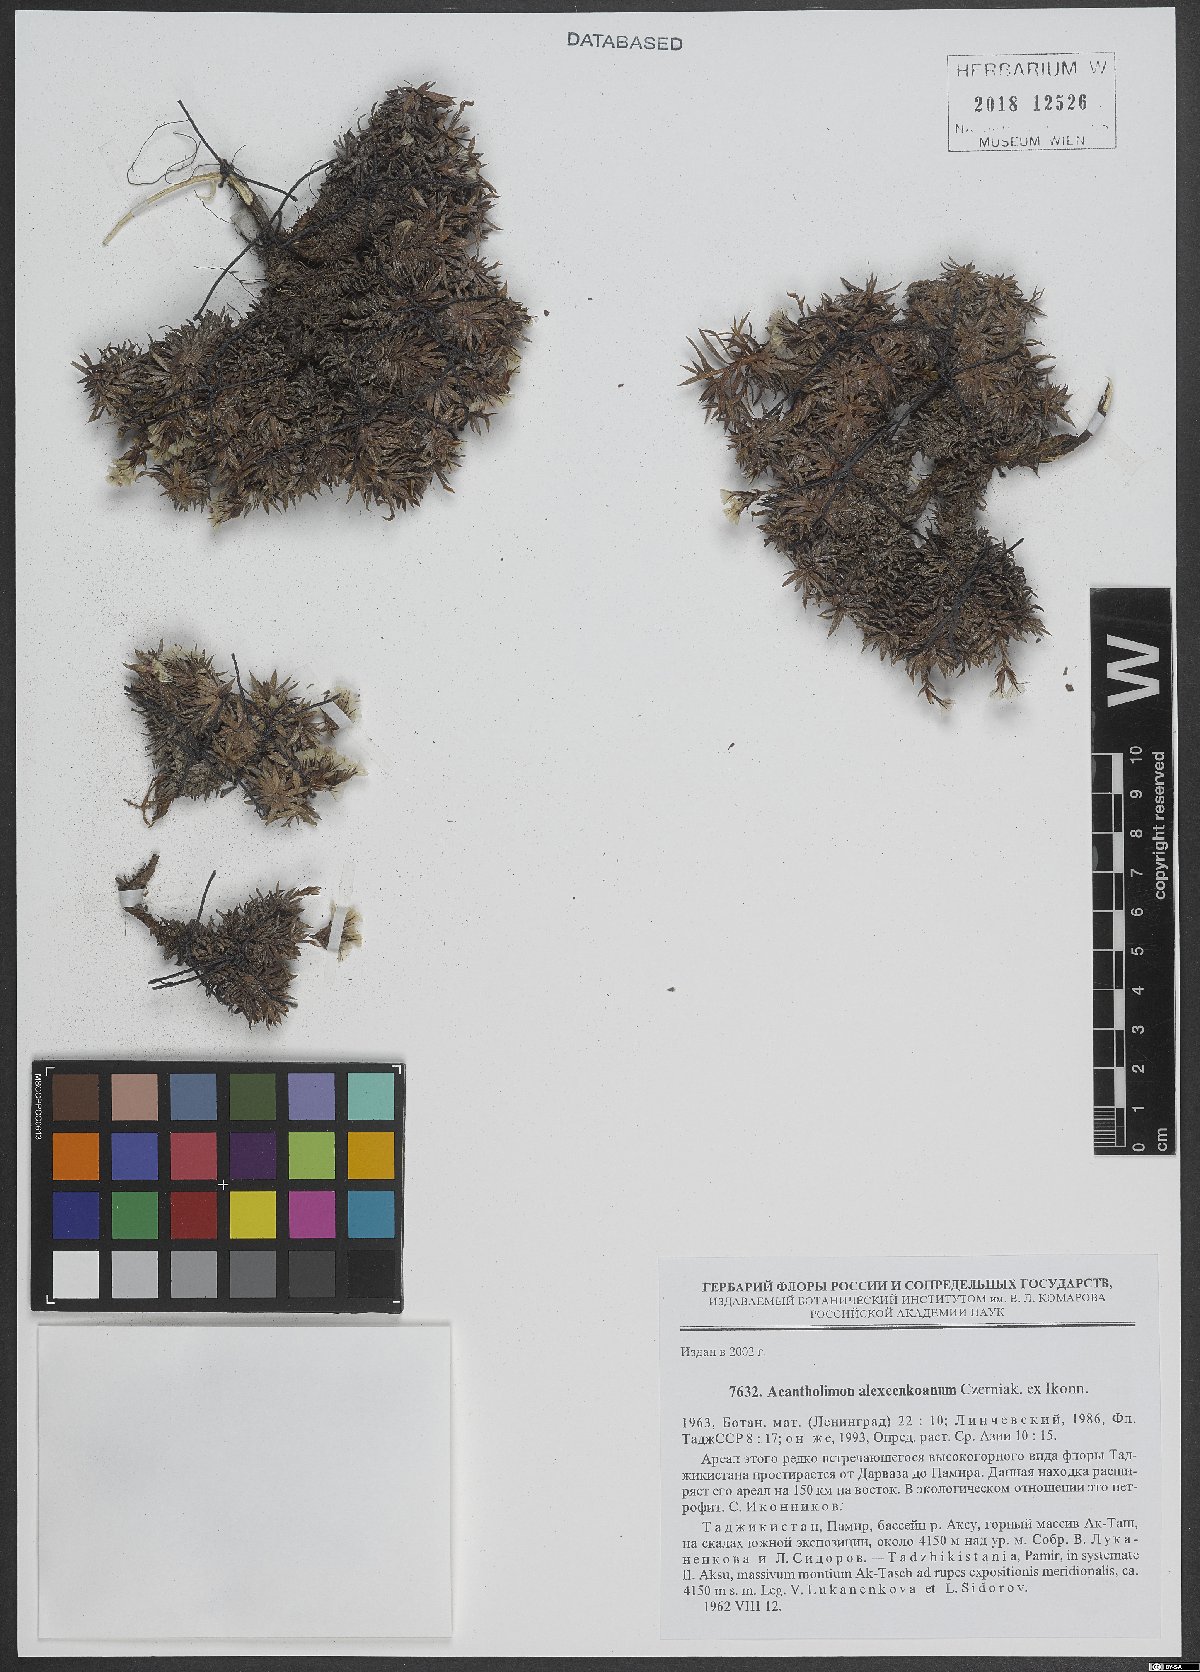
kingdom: Plantae
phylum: Tracheophyta
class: Magnoliopsida
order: Caryophyllales
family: Plumbaginaceae
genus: Acantholimon
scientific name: Acantholimon alexeenkoanum
